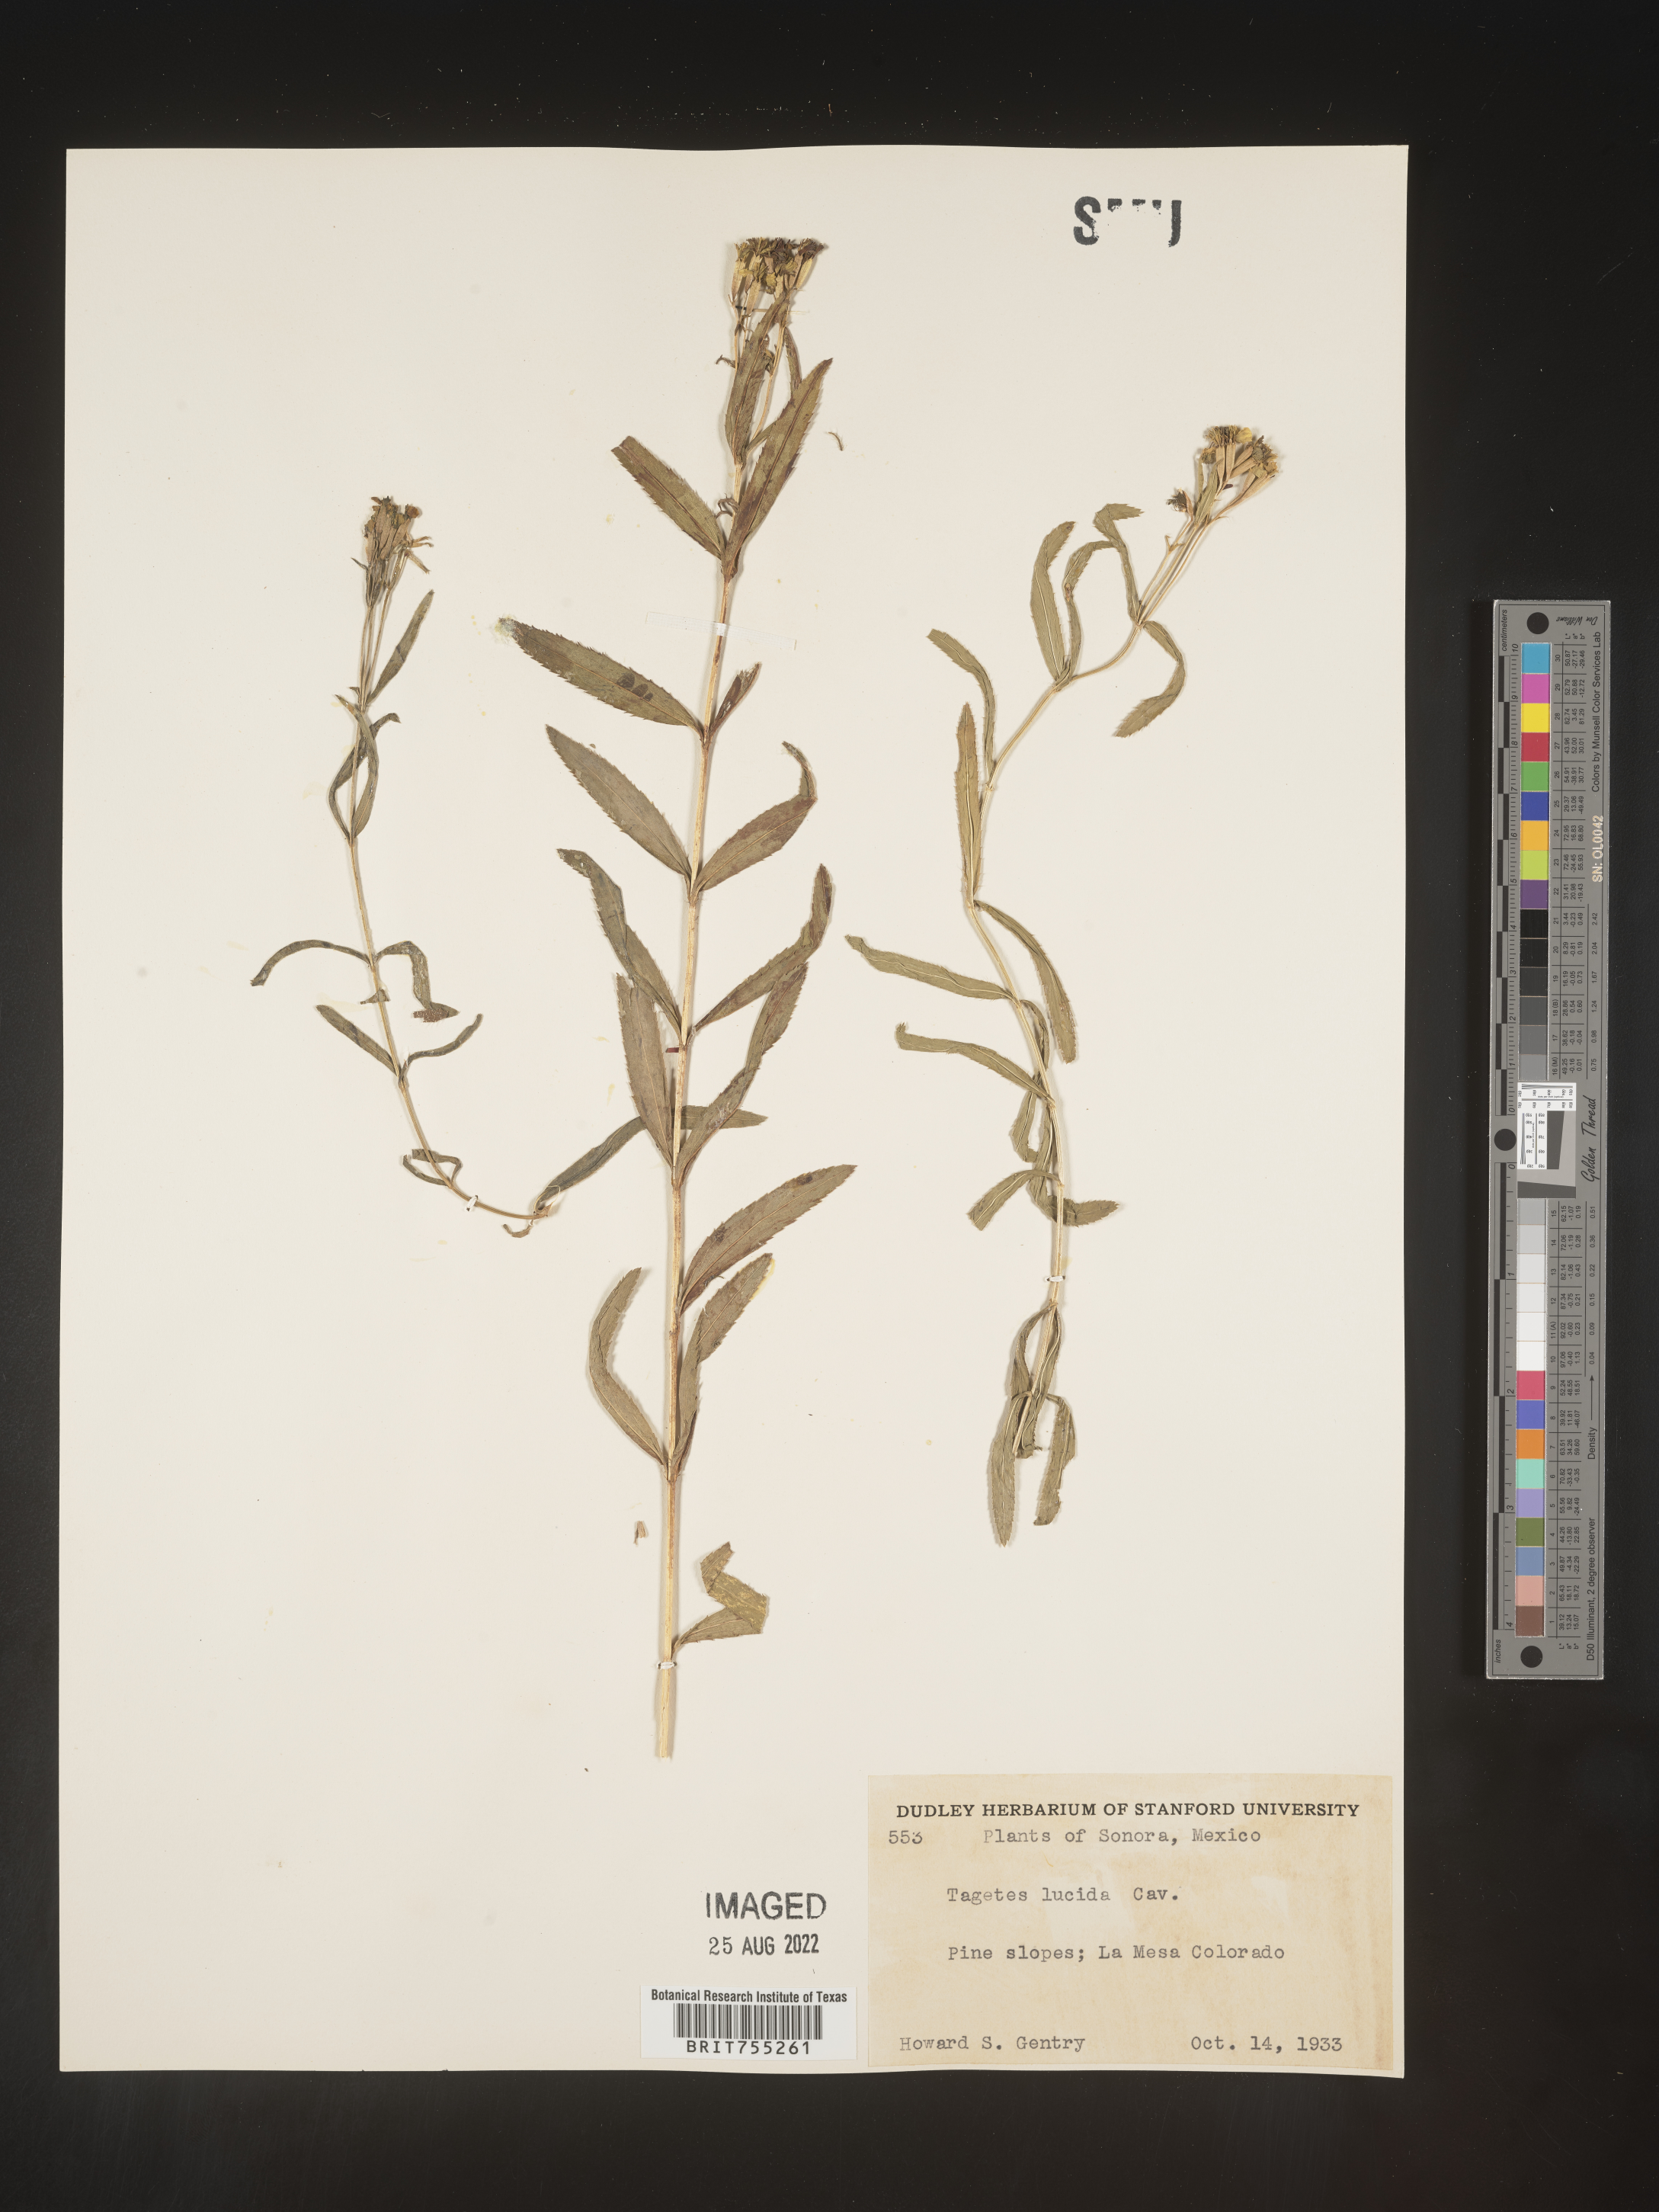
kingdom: Plantae
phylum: Tracheophyta
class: Magnoliopsida
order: Asterales
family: Asteraceae
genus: Tagetes
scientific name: Tagetes lucida
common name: Sweetscented marigold
